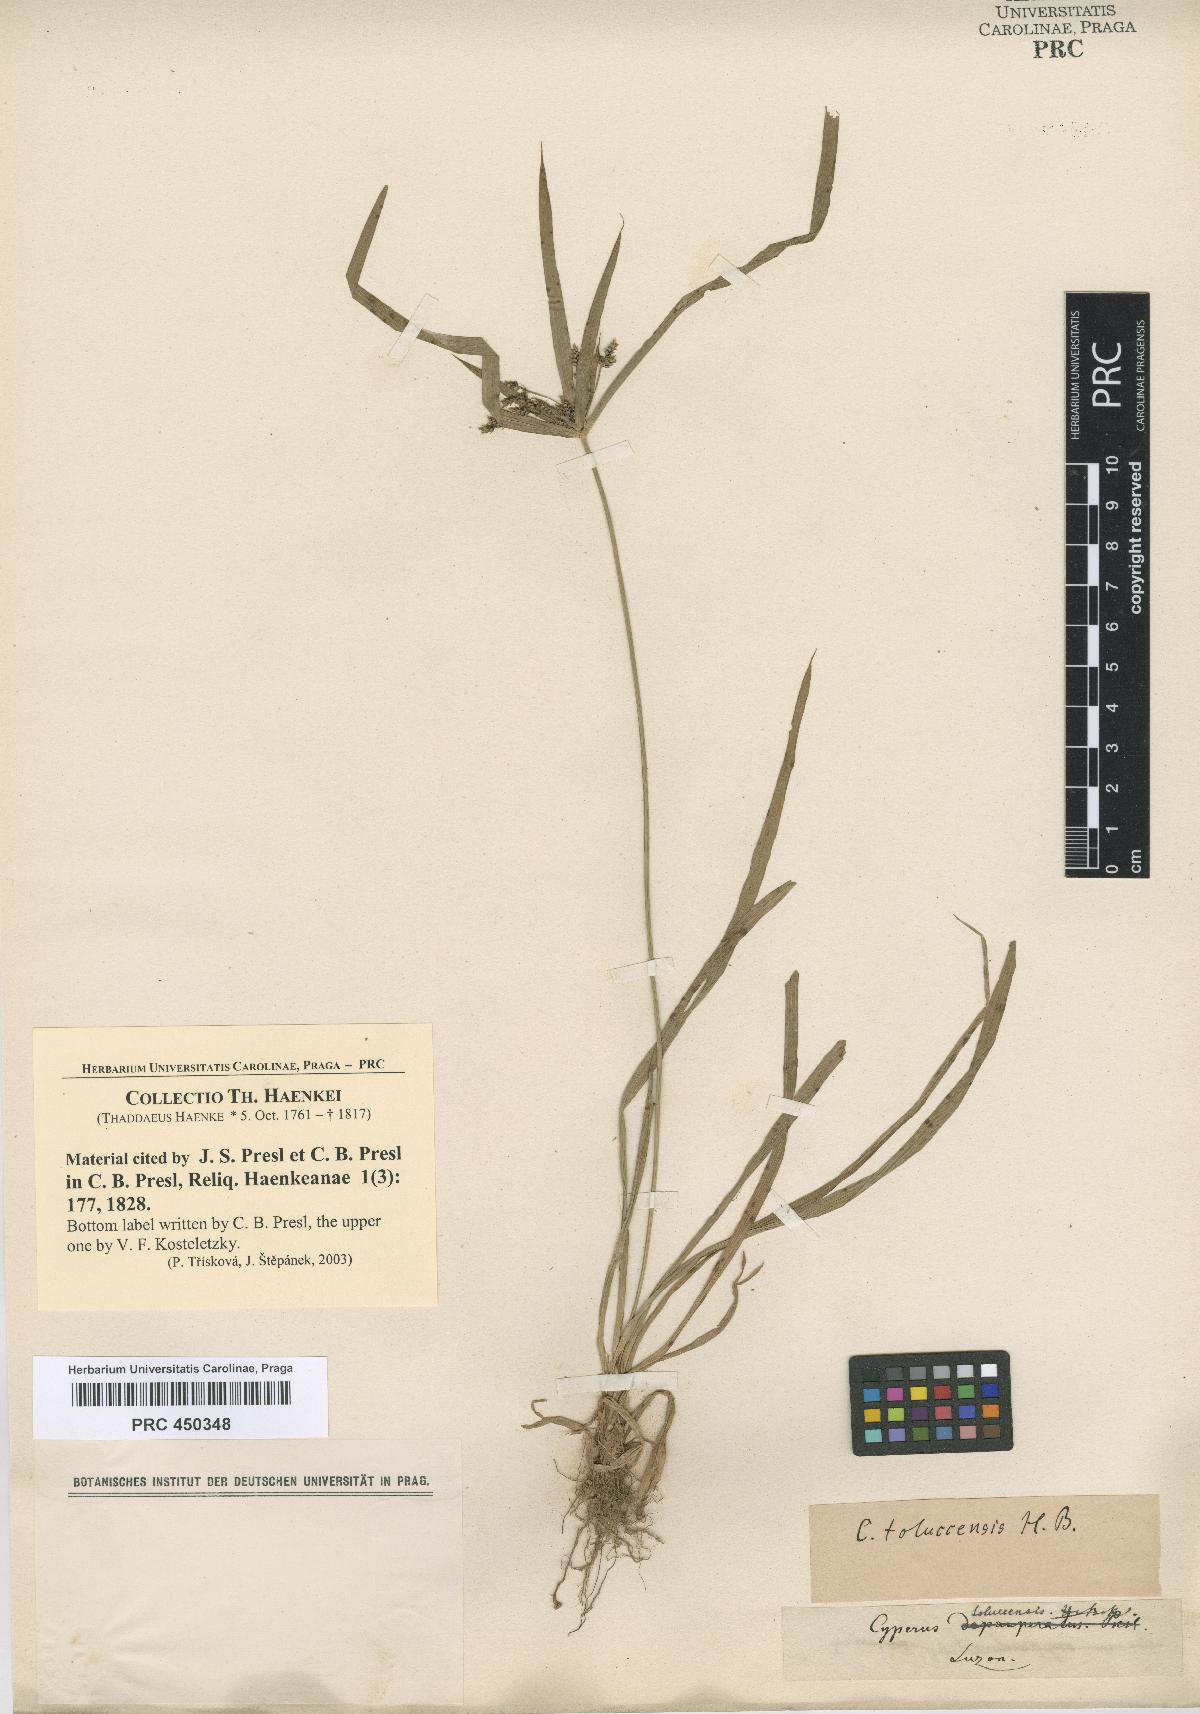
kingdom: Plantae
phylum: Tracheophyta
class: Liliopsida
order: Poales
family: Cyperaceae
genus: Cyperus
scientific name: Cyperus
